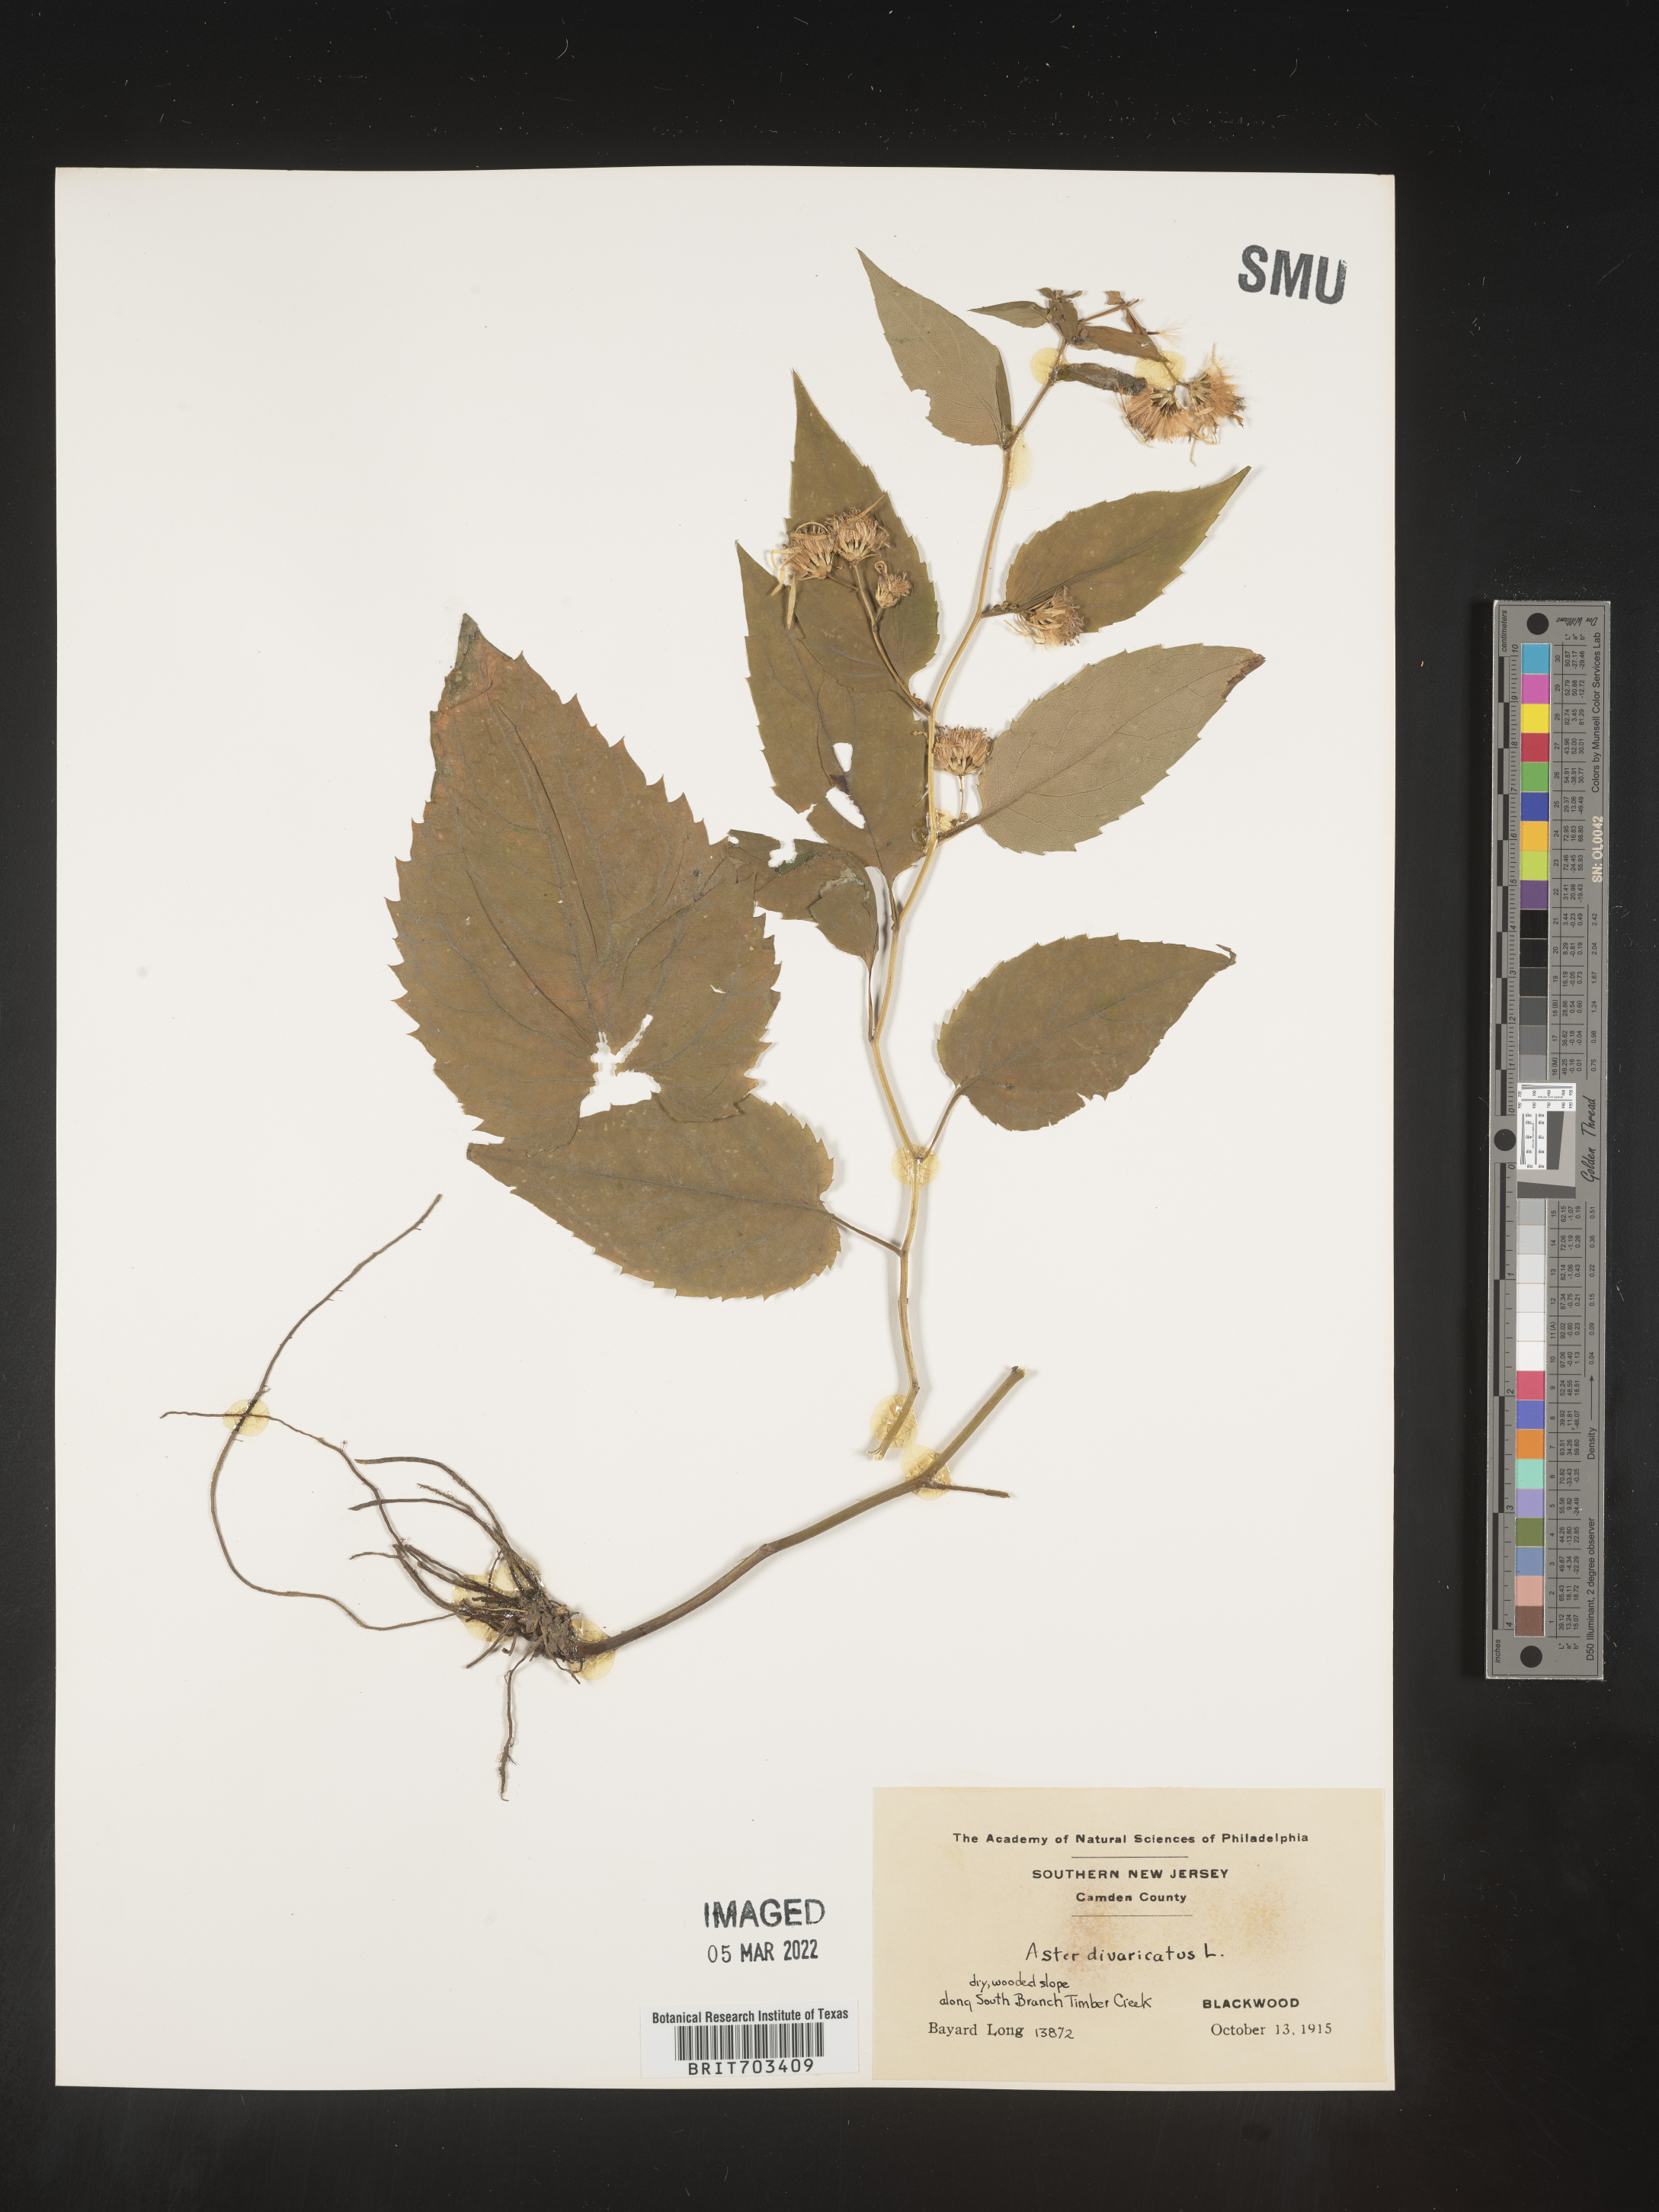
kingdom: Plantae
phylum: Tracheophyta
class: Magnoliopsida
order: Asterales
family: Asteraceae
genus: Eurybia
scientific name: Eurybia divaricata
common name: White wood aster
